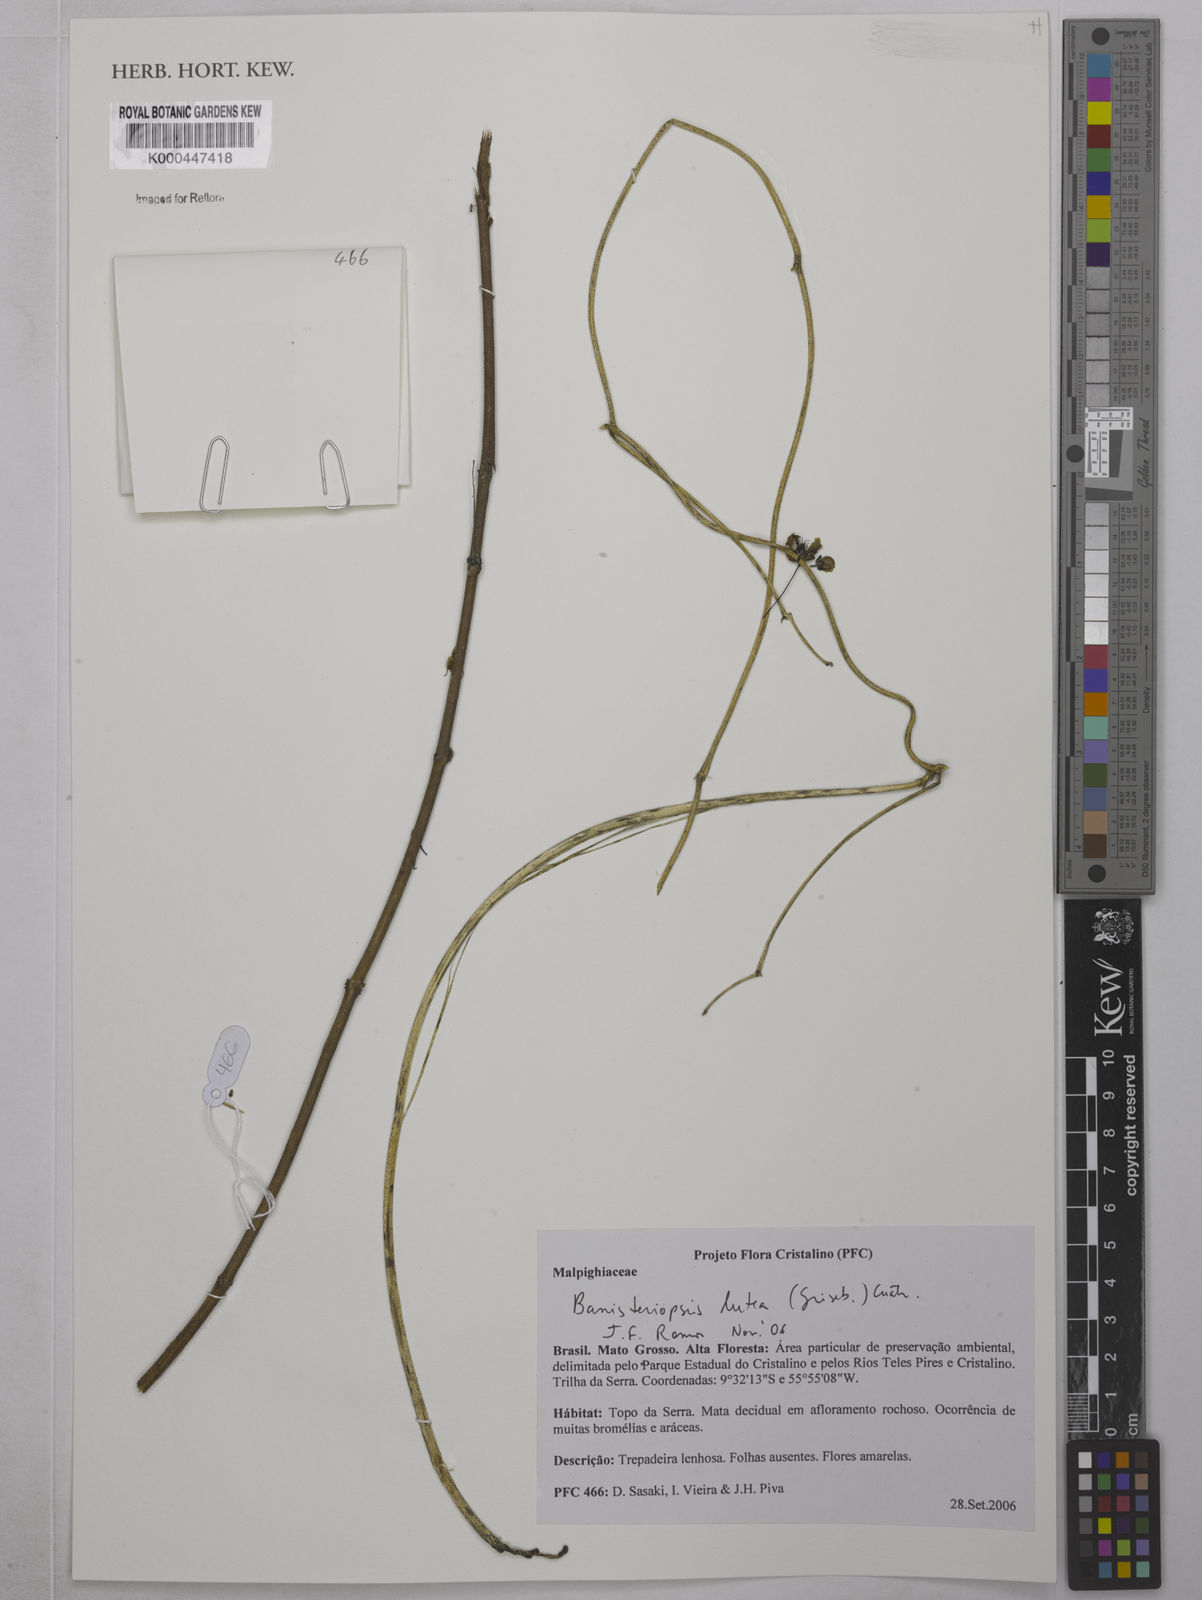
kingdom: Plantae
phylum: Tracheophyta
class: Magnoliopsida
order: Malpighiales
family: Malpighiaceae
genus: Diplopterys
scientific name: Diplopterys lutea
